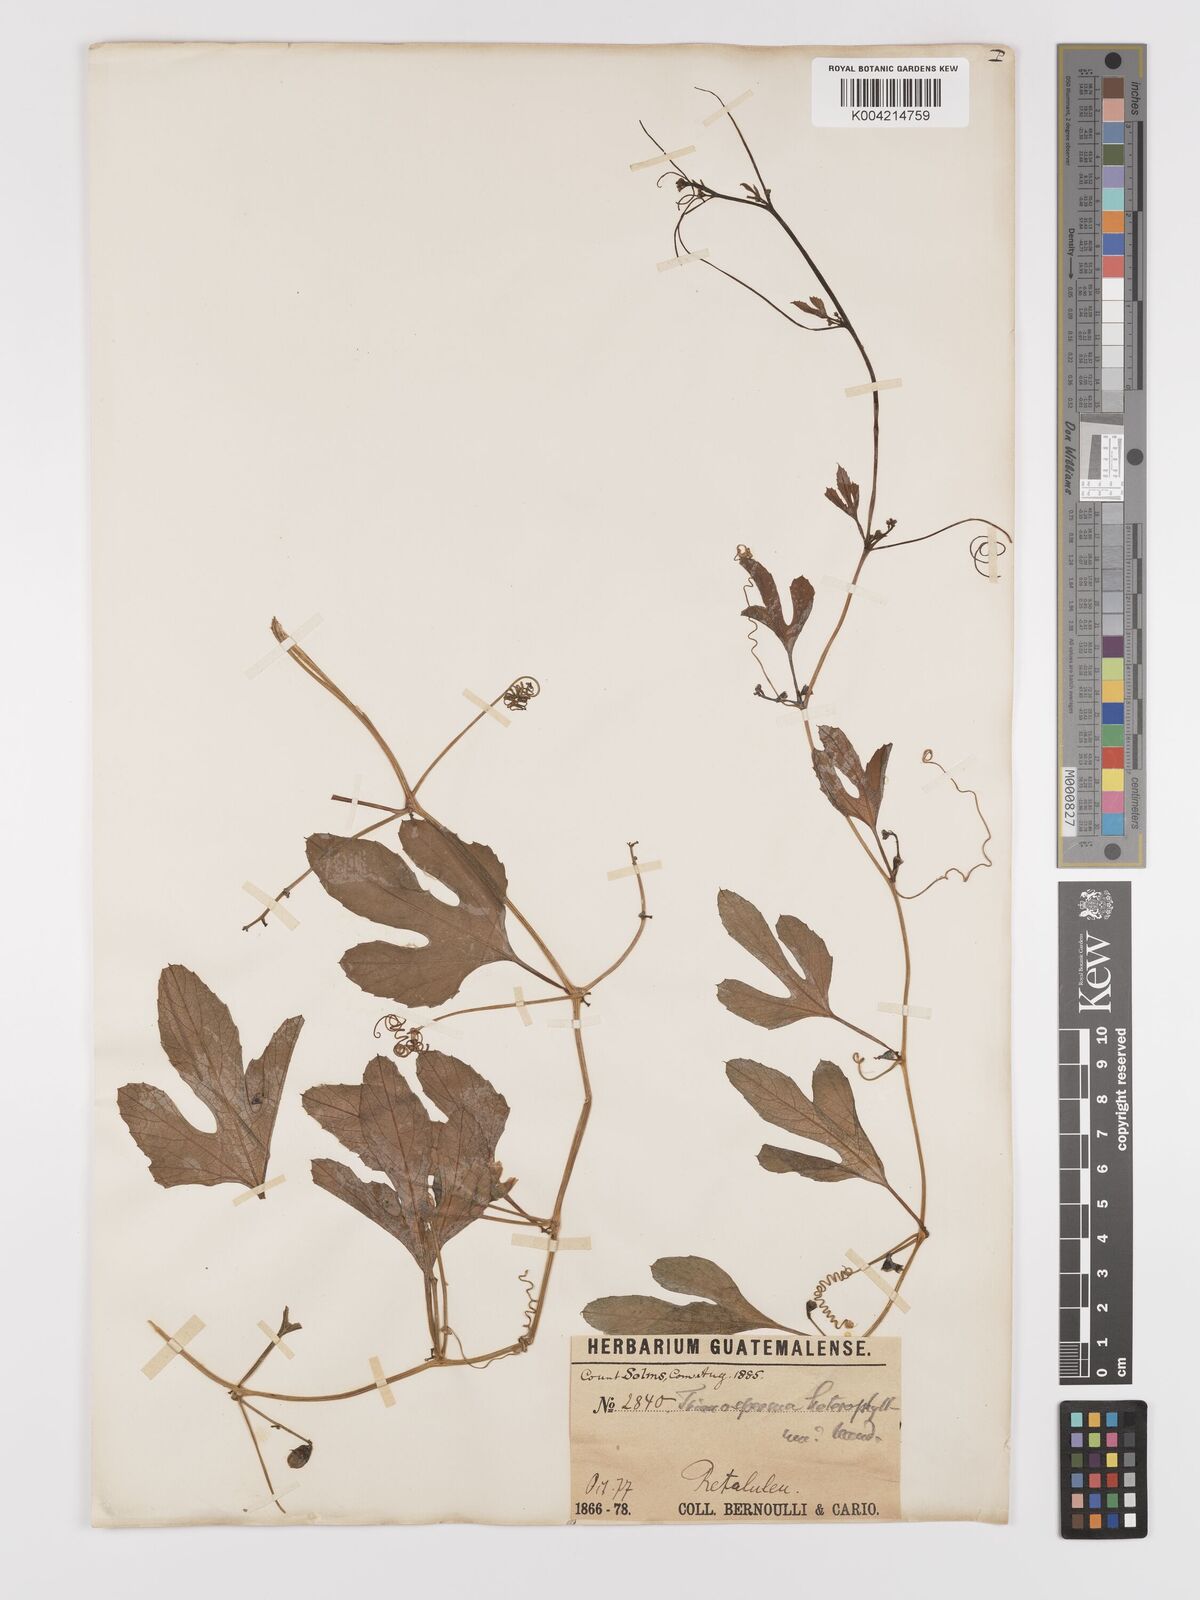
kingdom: Plantae
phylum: Tracheophyta
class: Magnoliopsida
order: Cucurbitales
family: Cucurbitaceae
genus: Cayaponia
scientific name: Cayaponia attenuata
